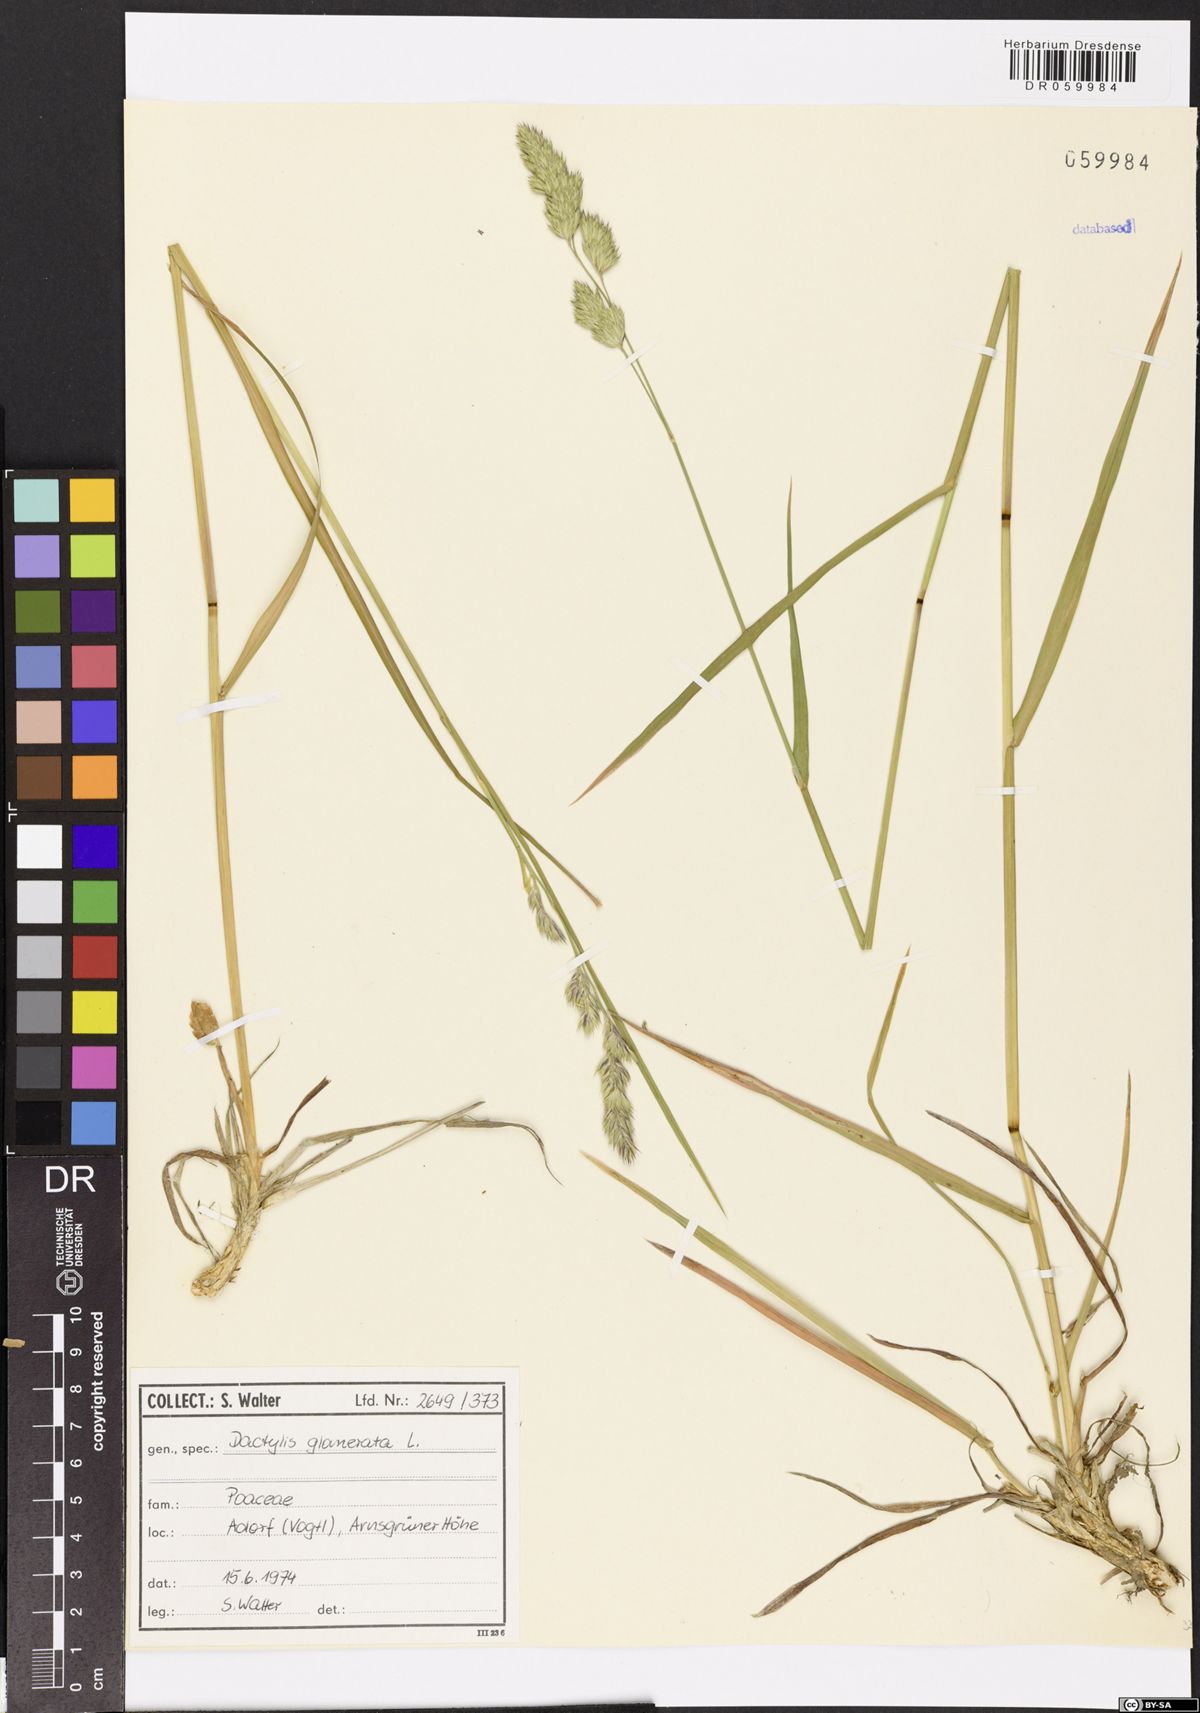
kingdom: Plantae
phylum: Tracheophyta
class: Liliopsida
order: Poales
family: Poaceae
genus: Dactylis
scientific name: Dactylis glomerata
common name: Orchardgrass
